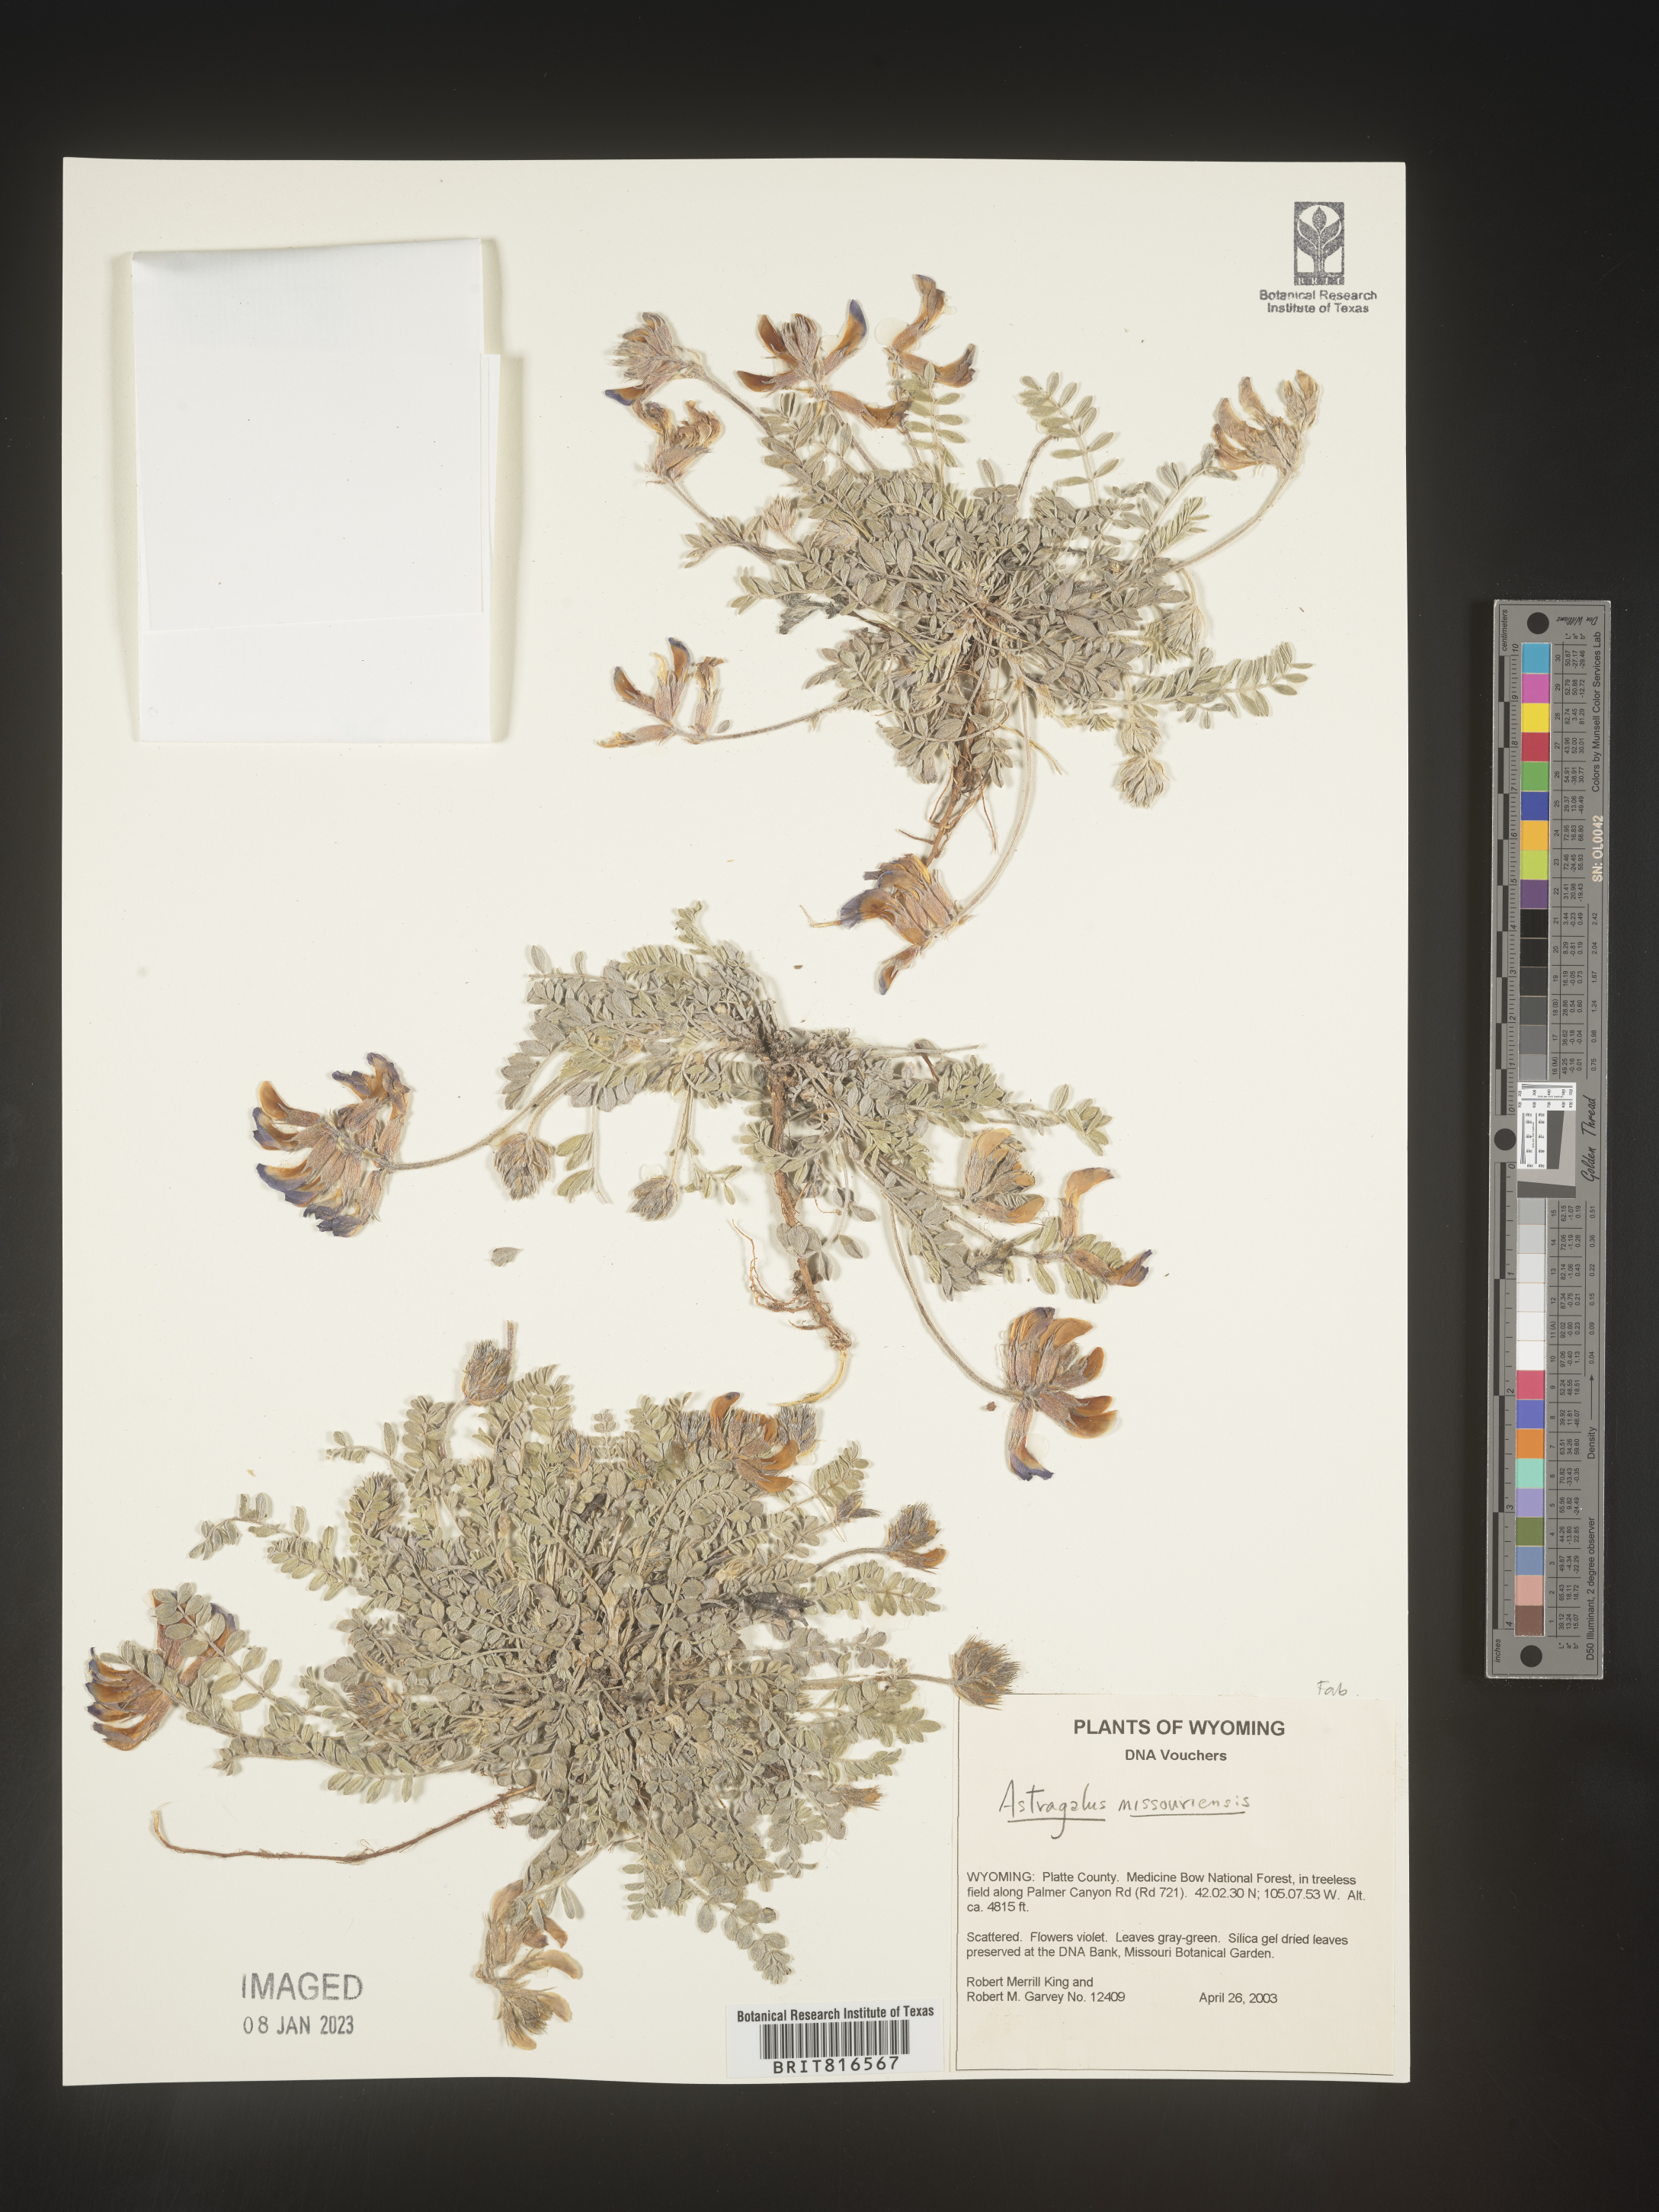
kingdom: Plantae
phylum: Tracheophyta
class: Magnoliopsida
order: Fabales
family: Fabaceae
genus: Astragalus
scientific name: Astragalus missouriensis
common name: Missouri milk-vetch
